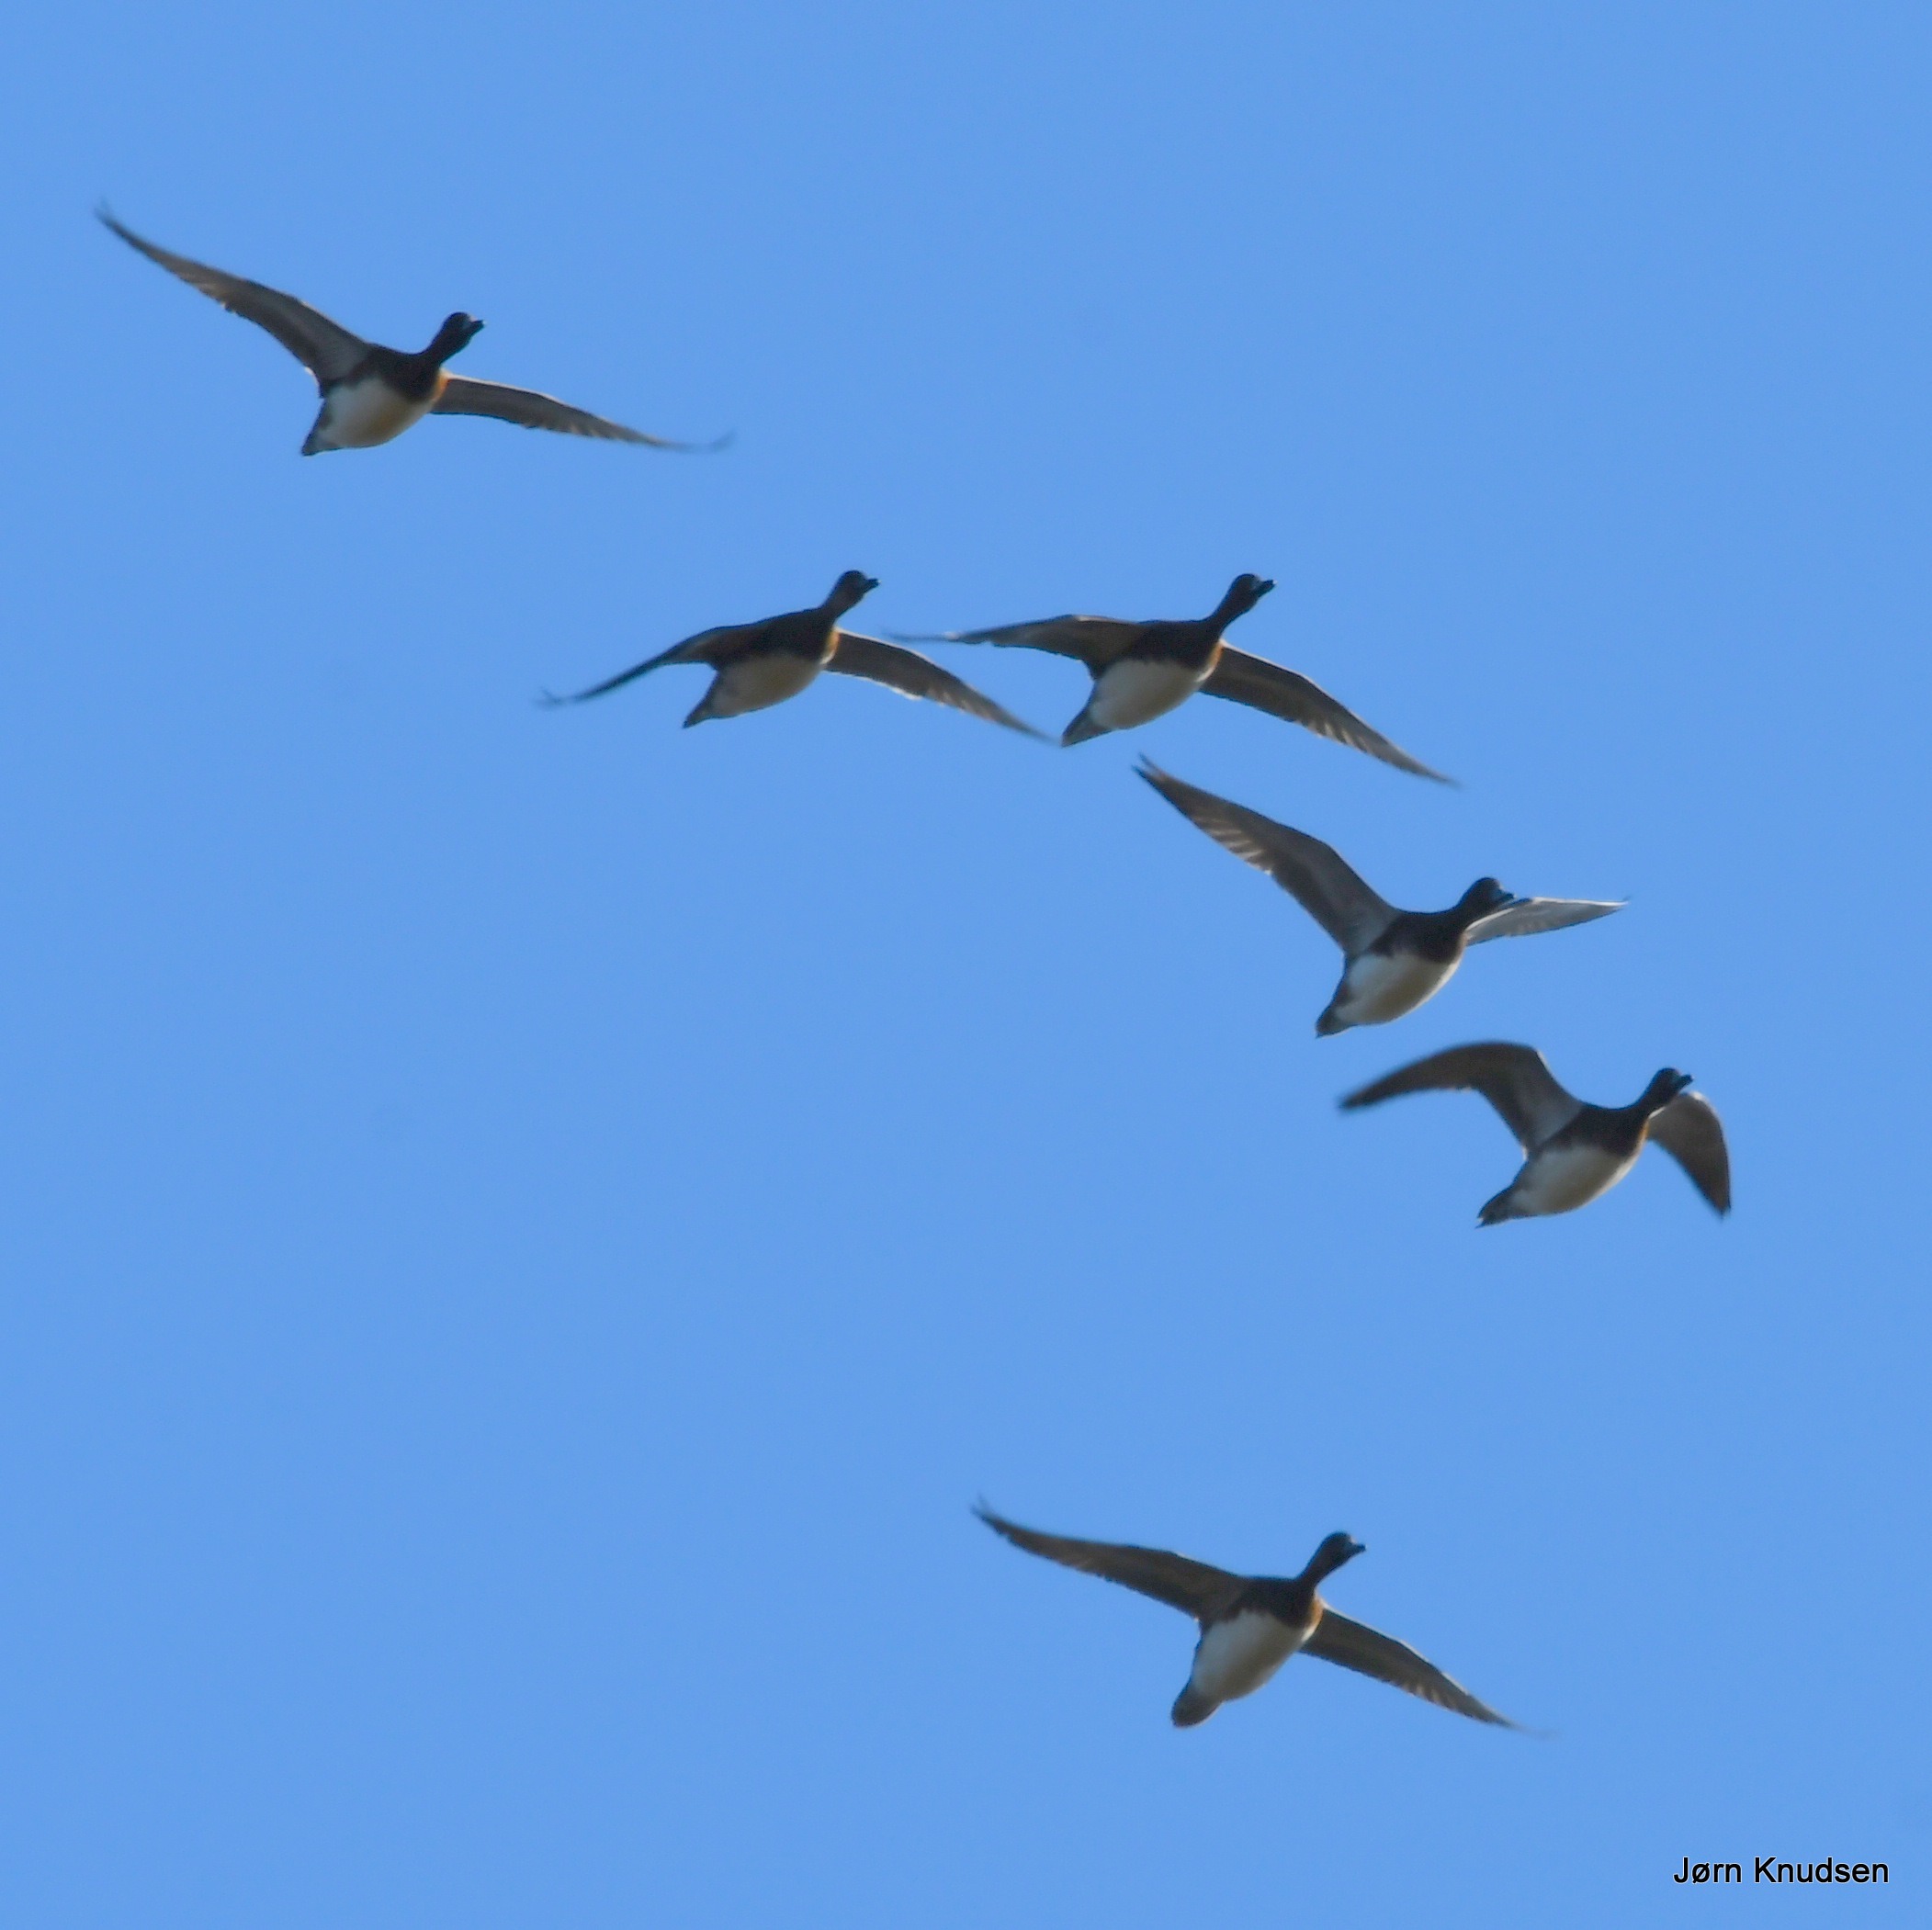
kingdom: Animalia
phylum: Chordata
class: Aves
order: Anseriformes
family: Anatidae
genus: Mareca
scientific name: Mareca penelope
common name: Pibeand
